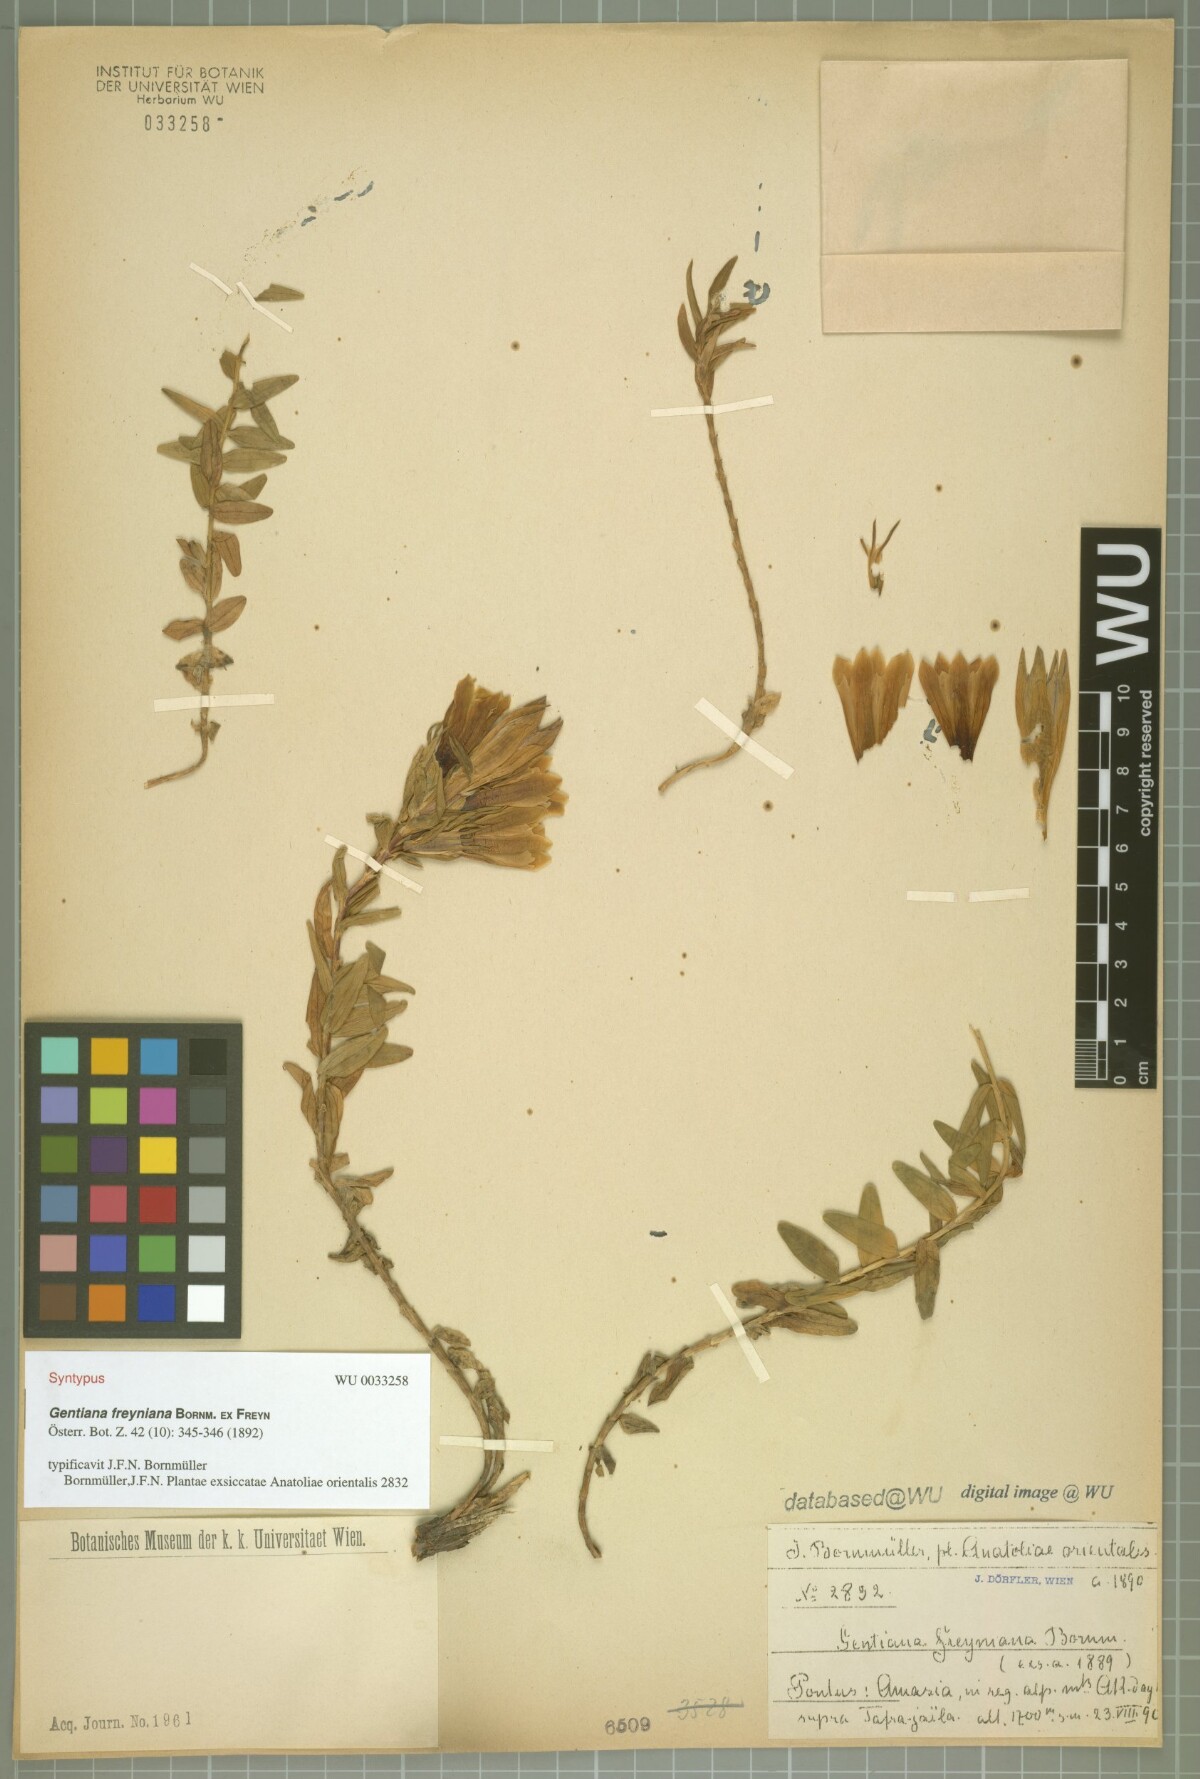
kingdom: Plantae
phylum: Tracheophyta
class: Magnoliopsida
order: Gentianales
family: Gentianaceae
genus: Gentiana
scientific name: Gentiana septemfida
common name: Crested gentian
